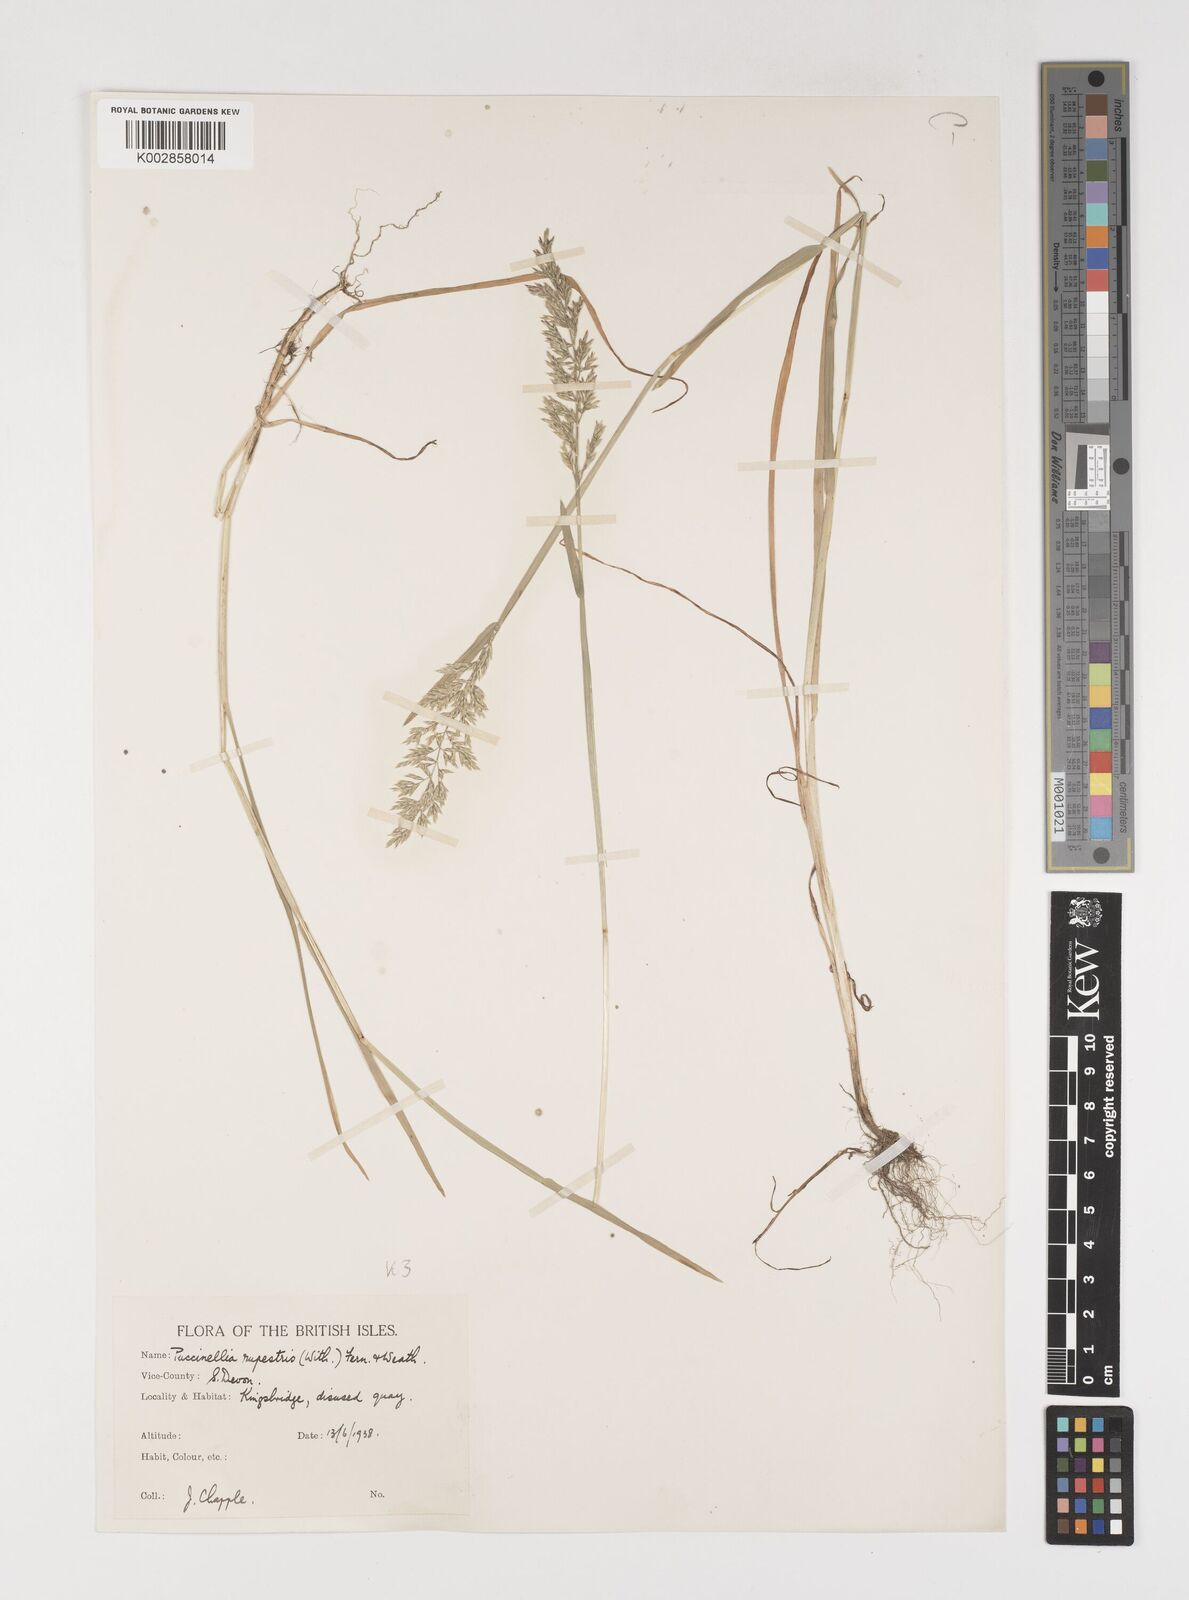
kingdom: Plantae
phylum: Tracheophyta
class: Liliopsida
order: Poales
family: Poaceae
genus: Puccinellia
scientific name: Puccinellia rupestris
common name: Stiff saltmarsh-grass
